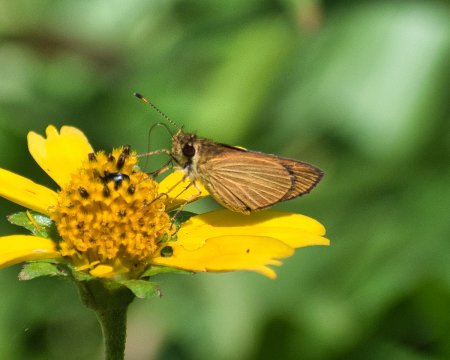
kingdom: Animalia
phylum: Arthropoda
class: Insecta
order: Lepidoptera
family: Hesperiidae
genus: Lento
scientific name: Lento xanthina
